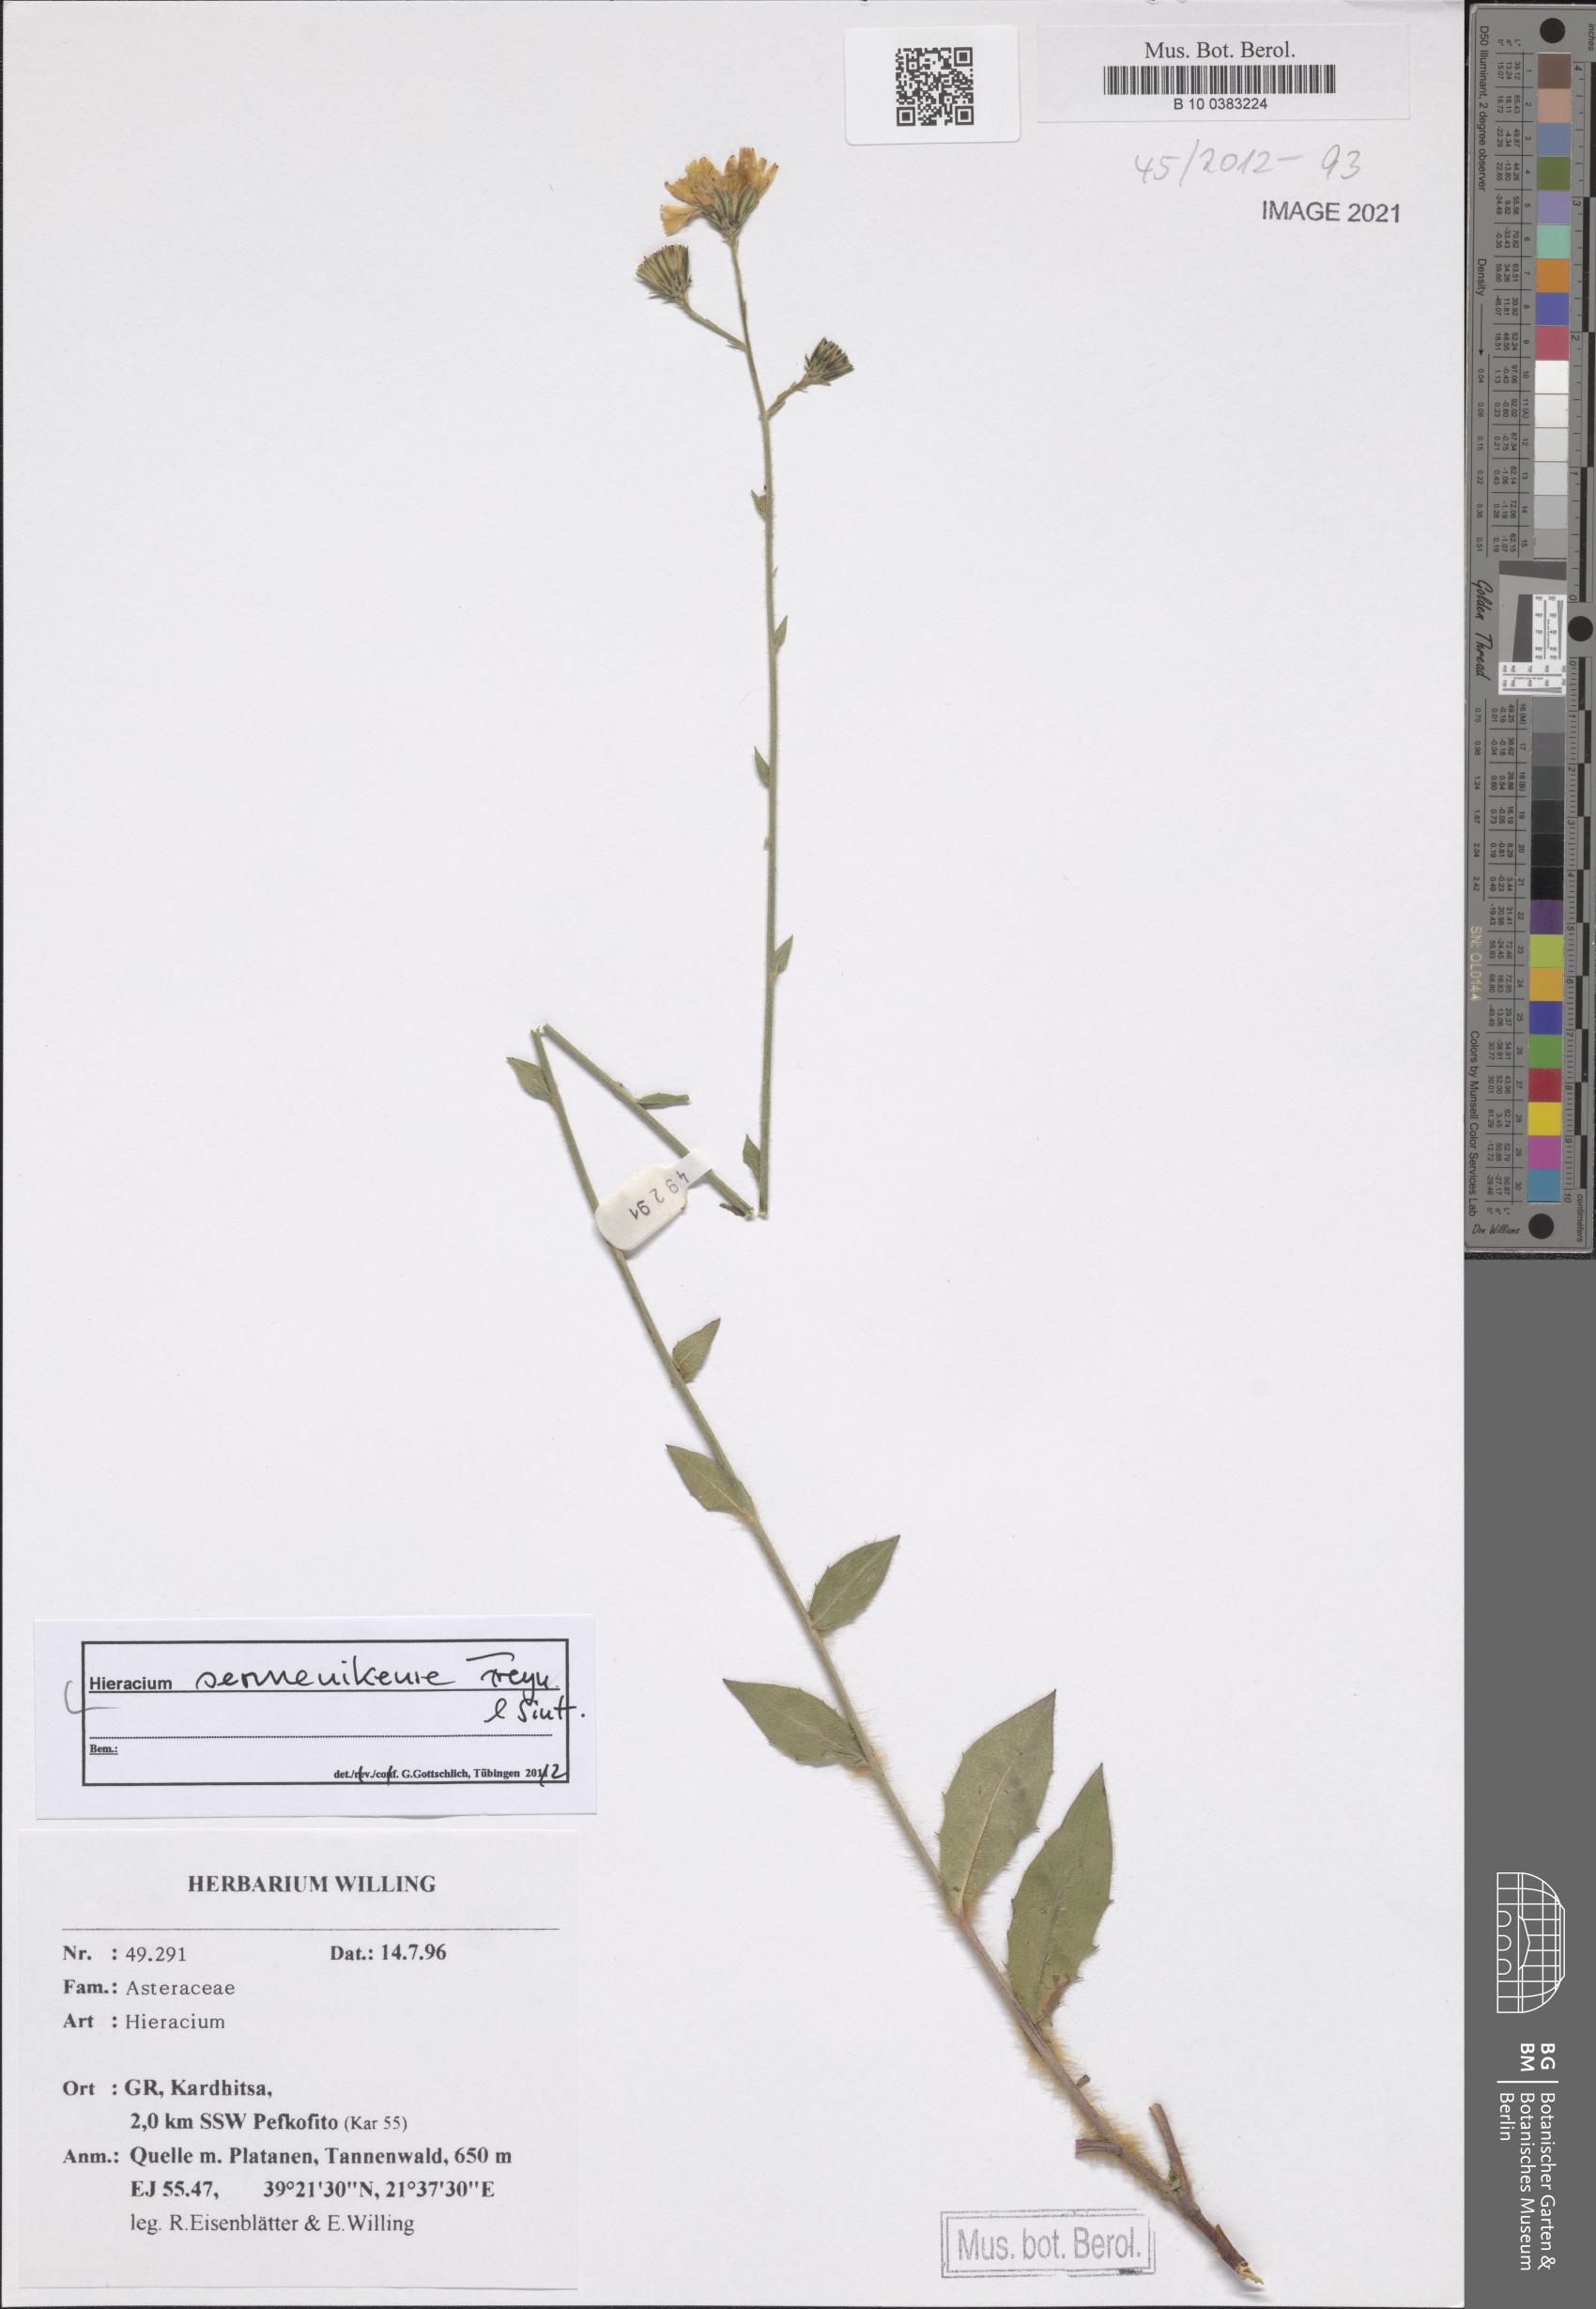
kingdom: Plantae
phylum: Tracheophyta
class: Magnoliopsida
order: Asterales
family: Asteraceae
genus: Hieracium
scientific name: Hieracium sermenikense
